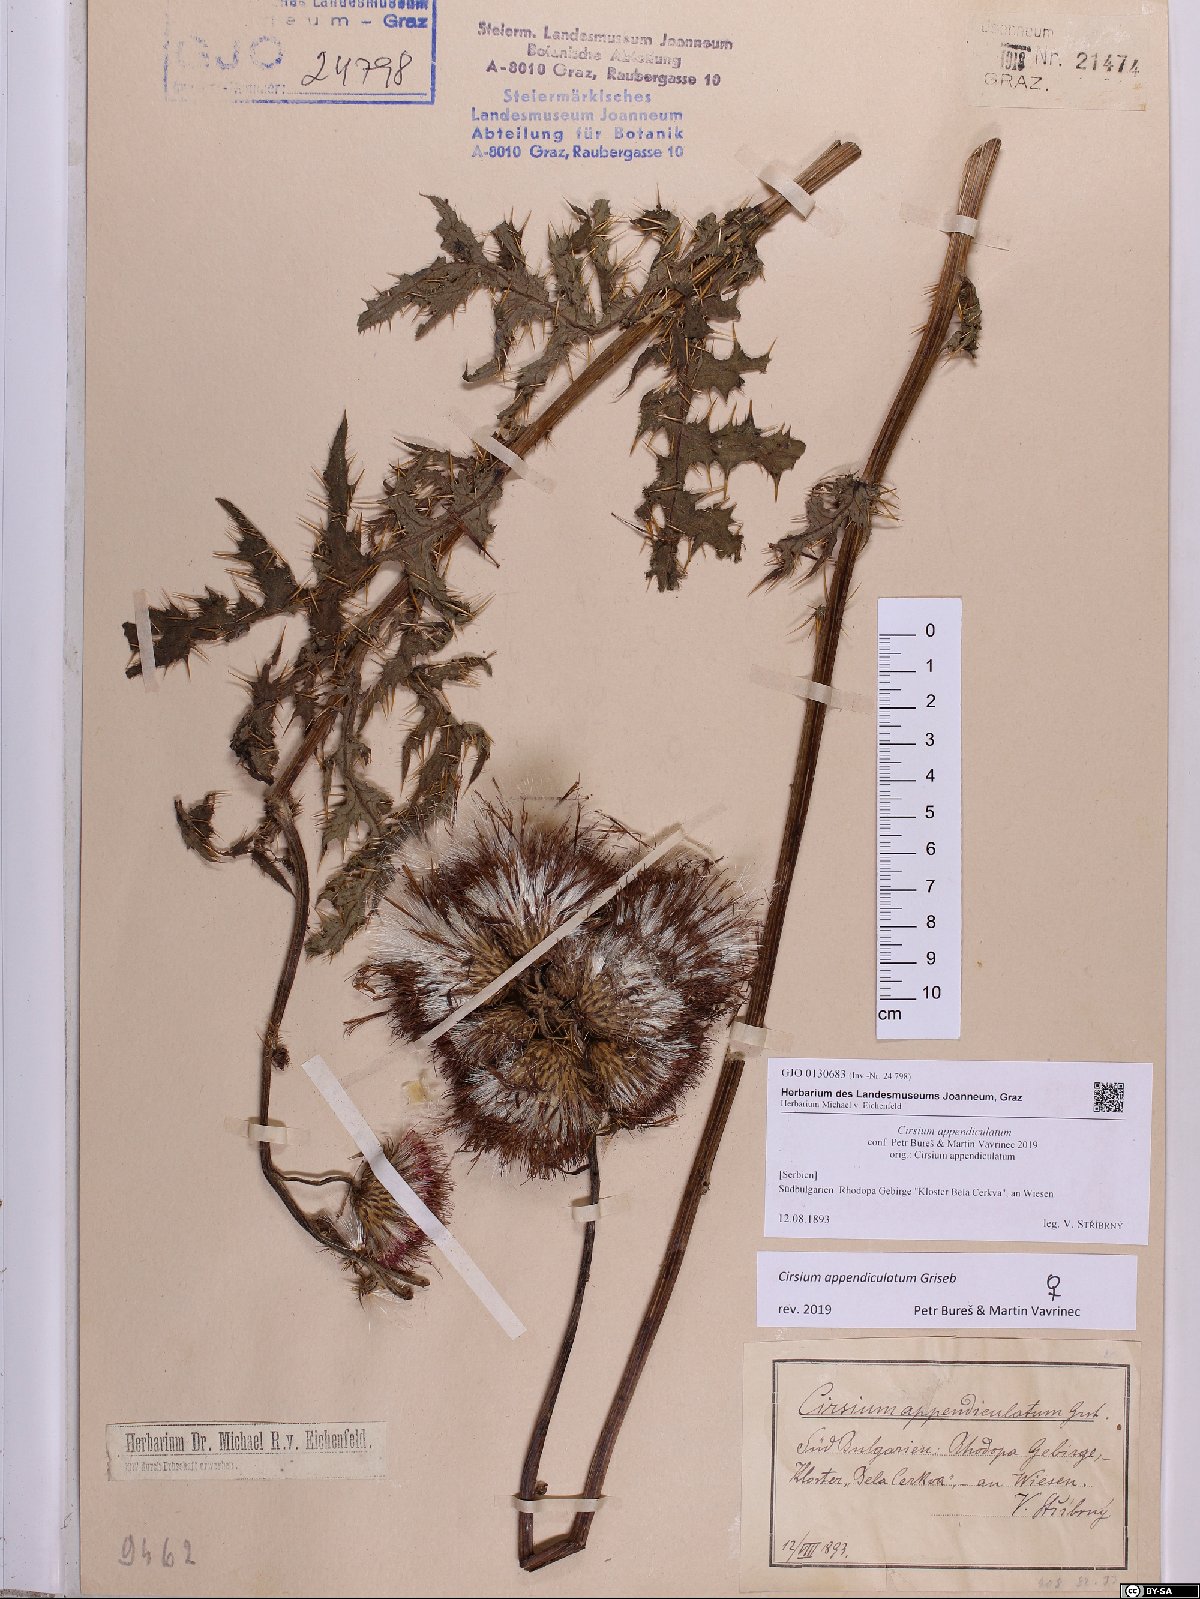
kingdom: Plantae
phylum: Tracheophyta
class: Magnoliopsida
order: Asterales
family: Asteraceae
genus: Cirsium
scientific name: Cirsium appendiculatum
